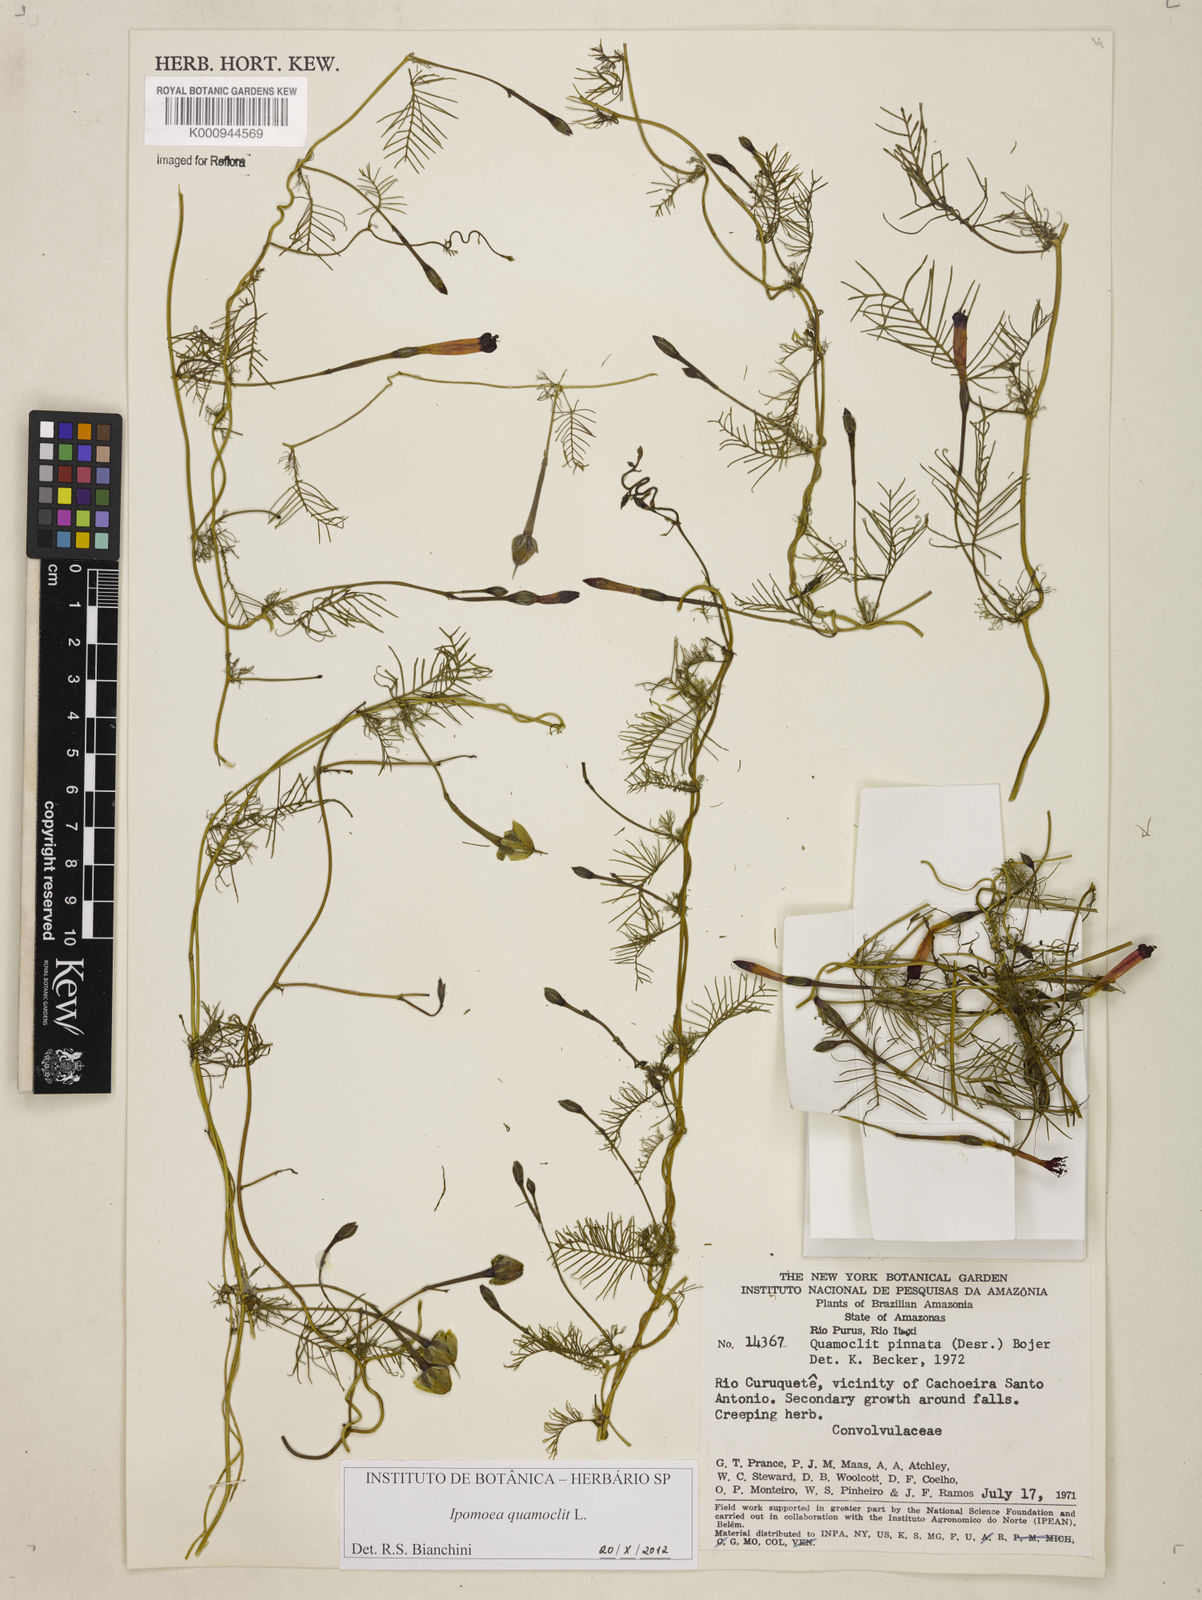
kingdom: Plantae
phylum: Tracheophyta
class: Magnoliopsida
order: Solanales
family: Convolvulaceae
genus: Ipomoea
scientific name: Ipomoea quamoclit
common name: Cypress vine
